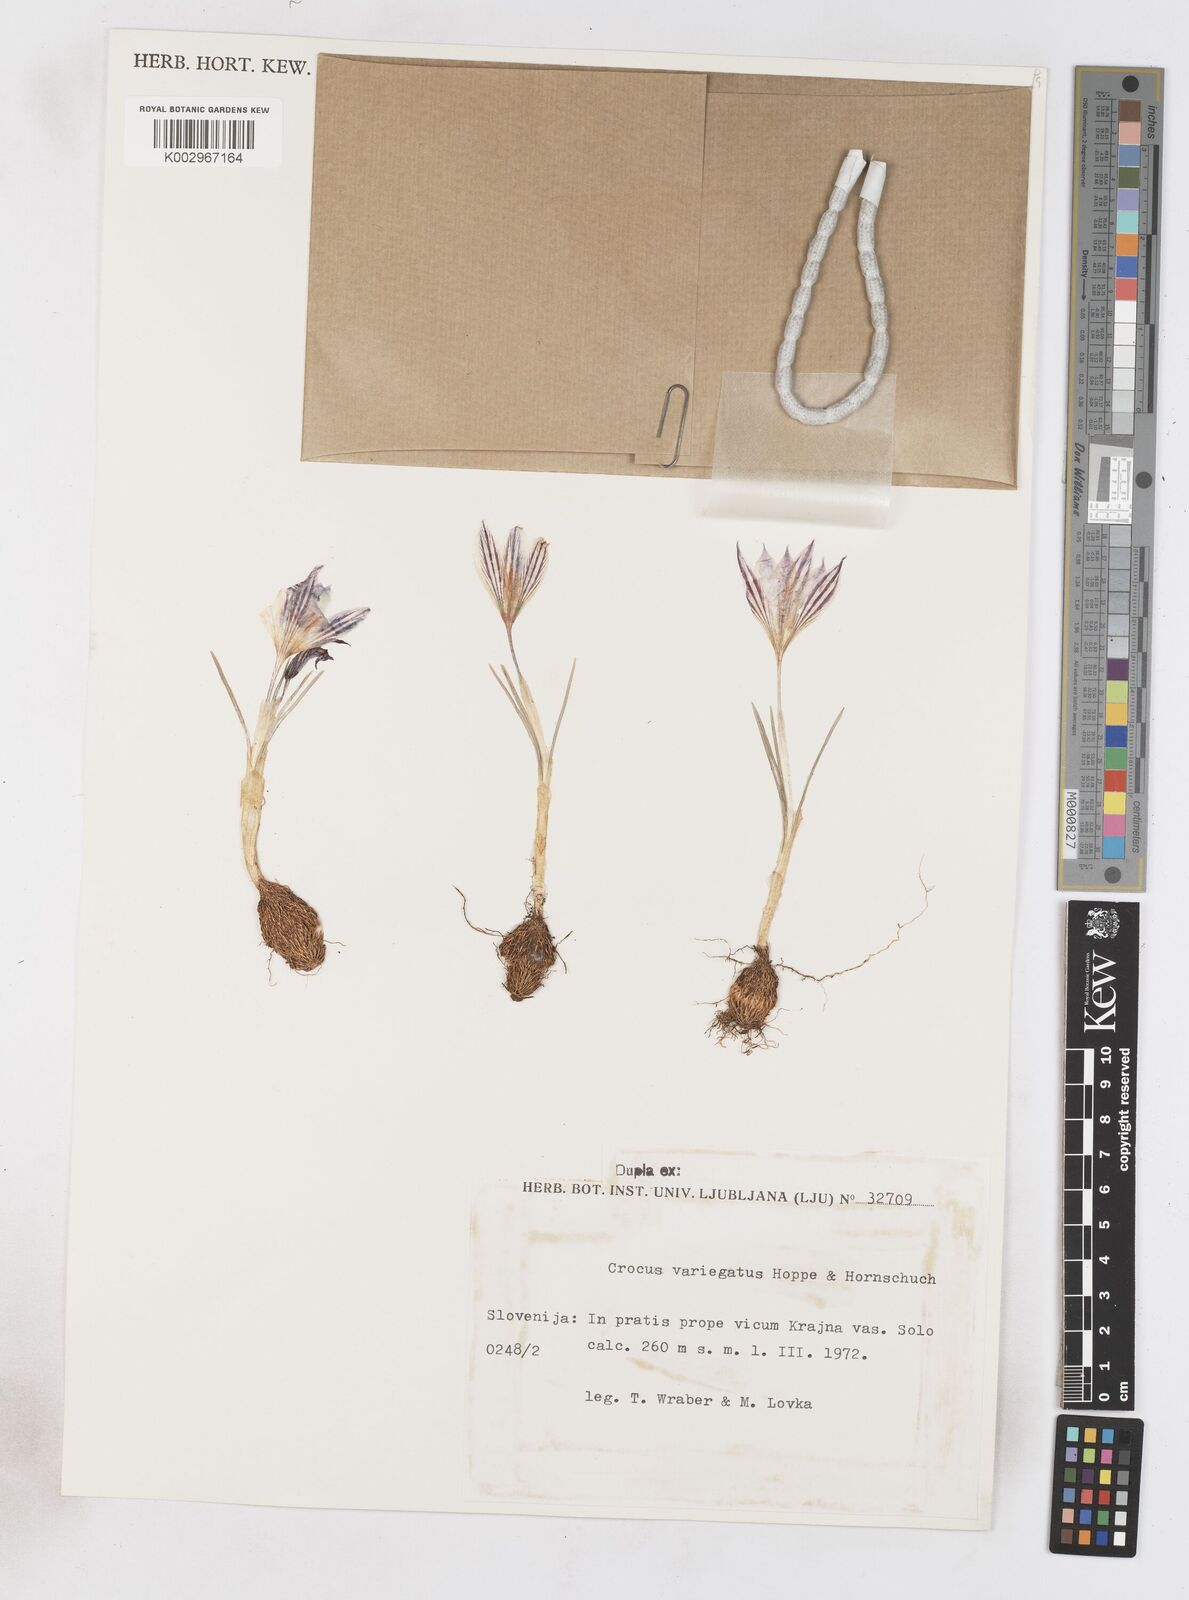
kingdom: Plantae
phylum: Tracheophyta
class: Liliopsida
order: Asparagales
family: Iridaceae
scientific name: Iridaceae
